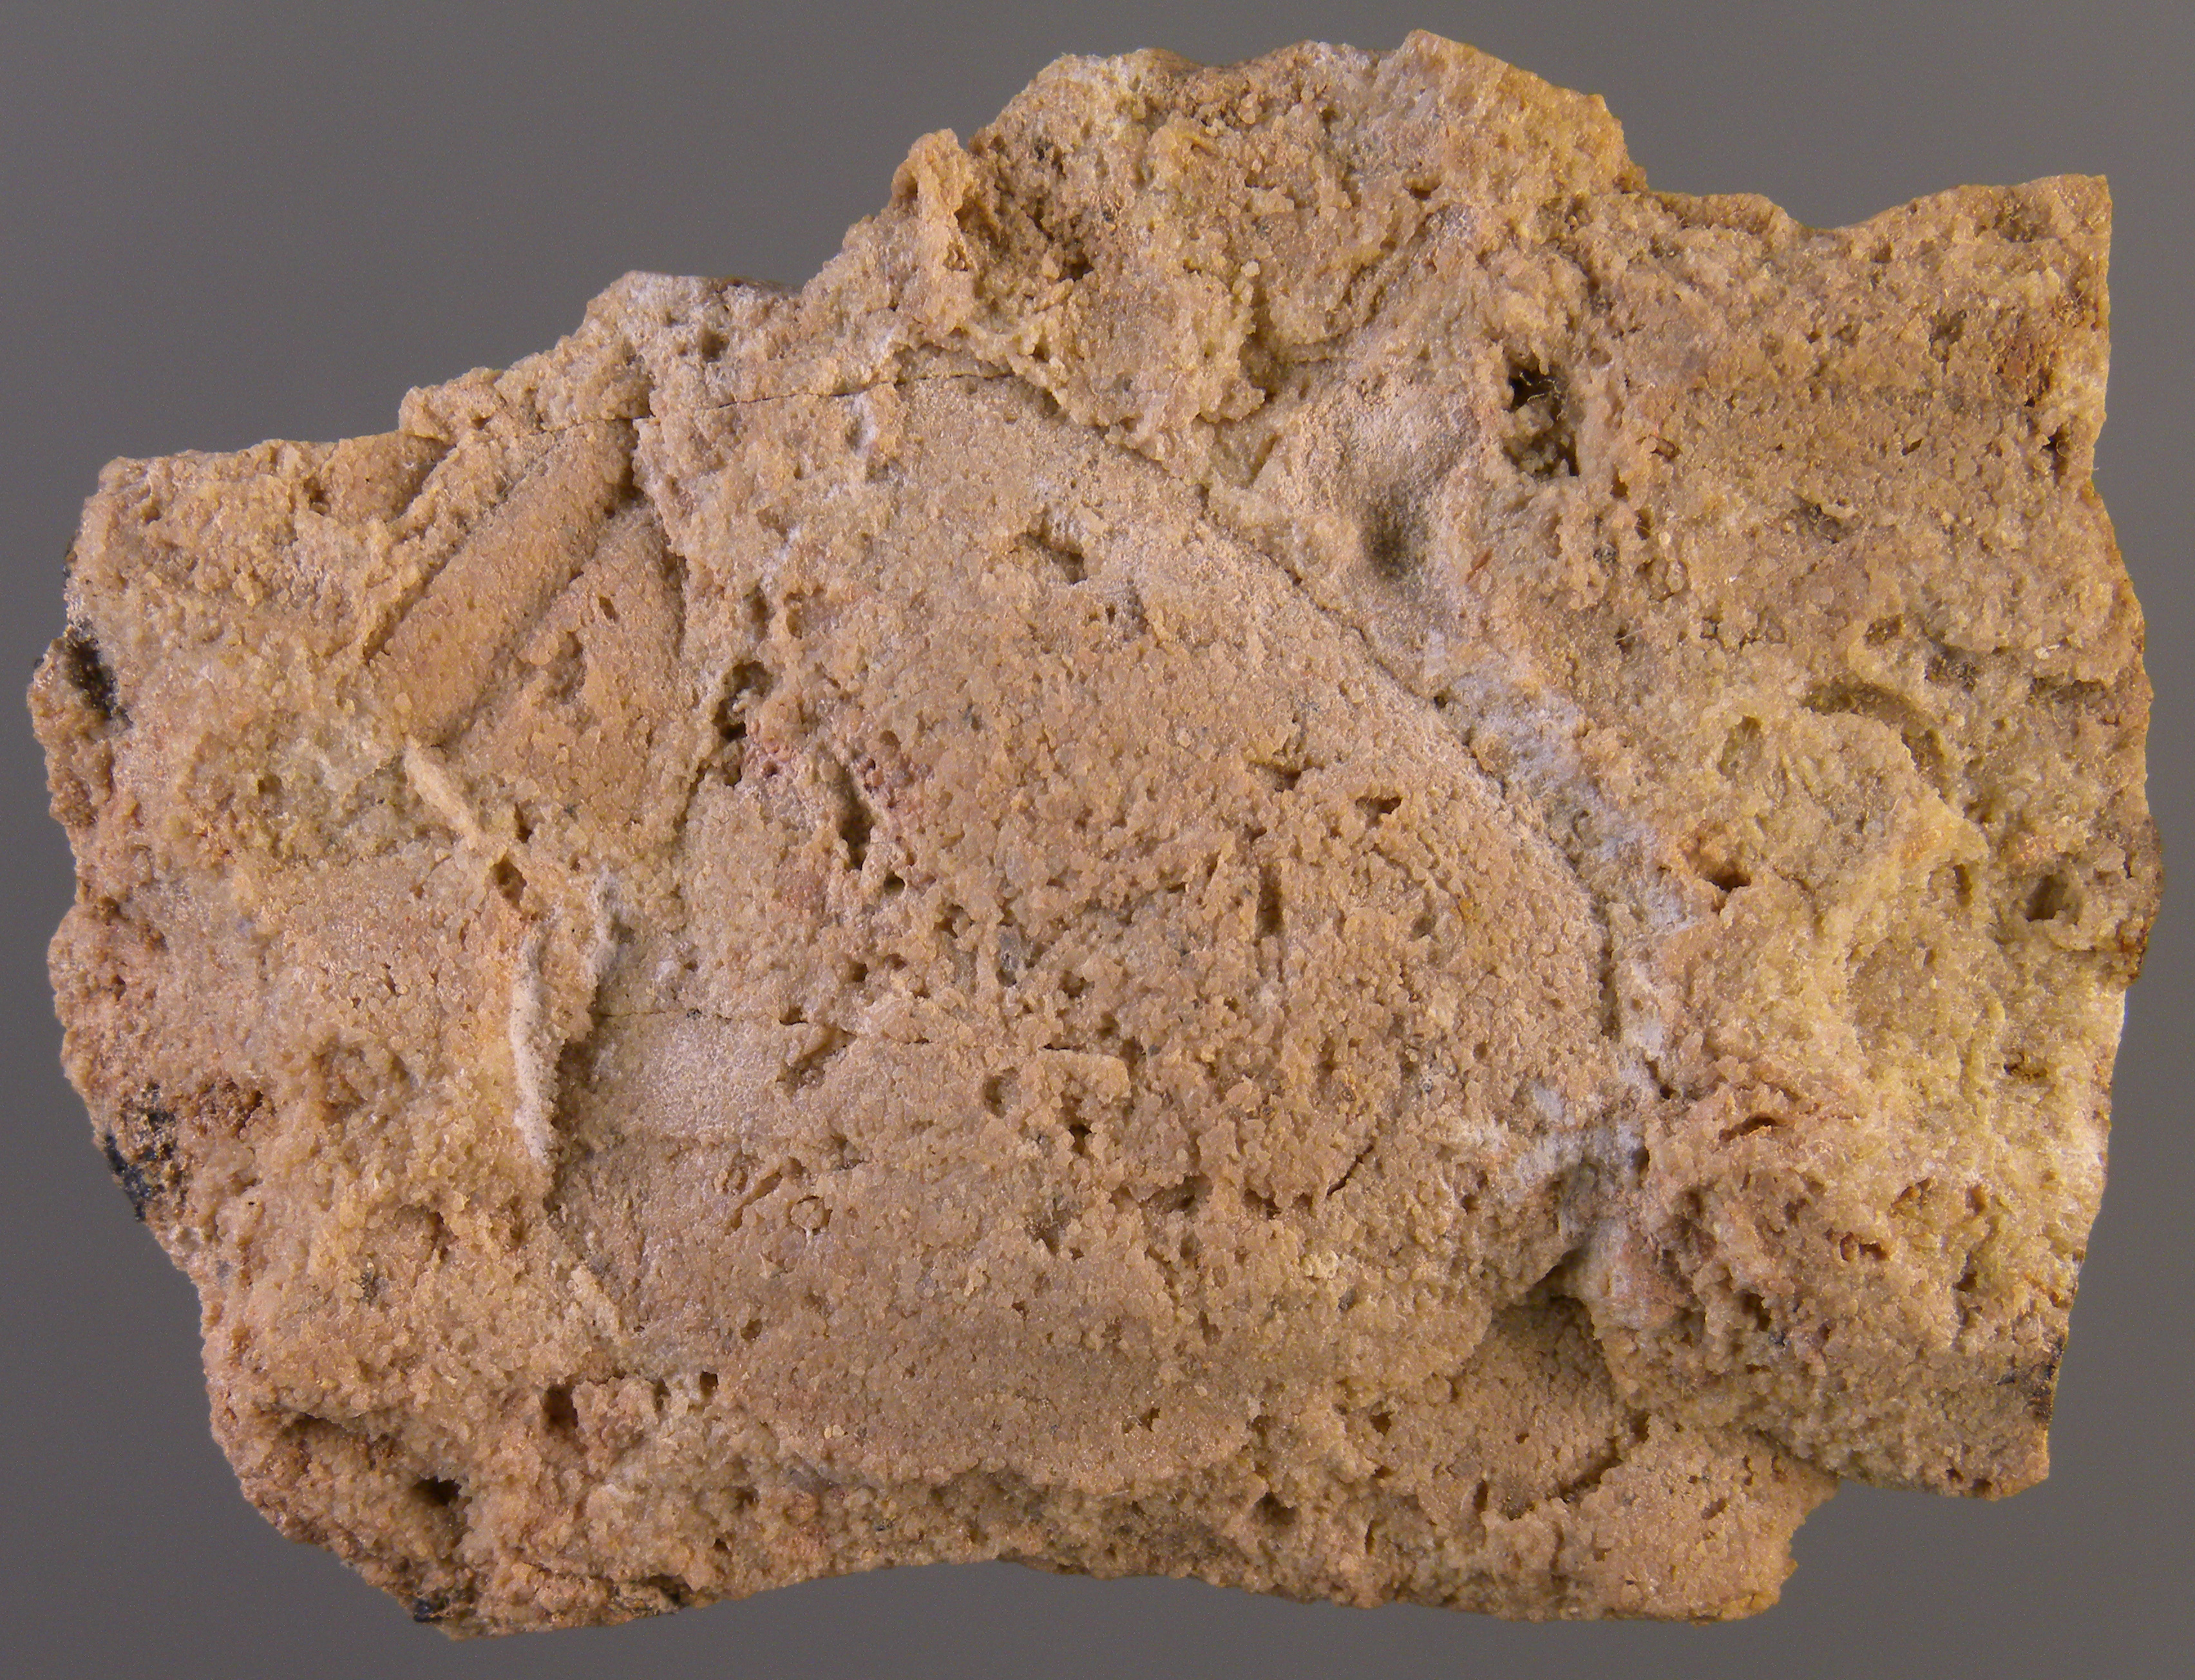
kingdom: Animalia
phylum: Mollusca
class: Bivalvia
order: Trigoniida
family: Eoschizodidae
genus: Eoschizodus
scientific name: Eoschizodus
